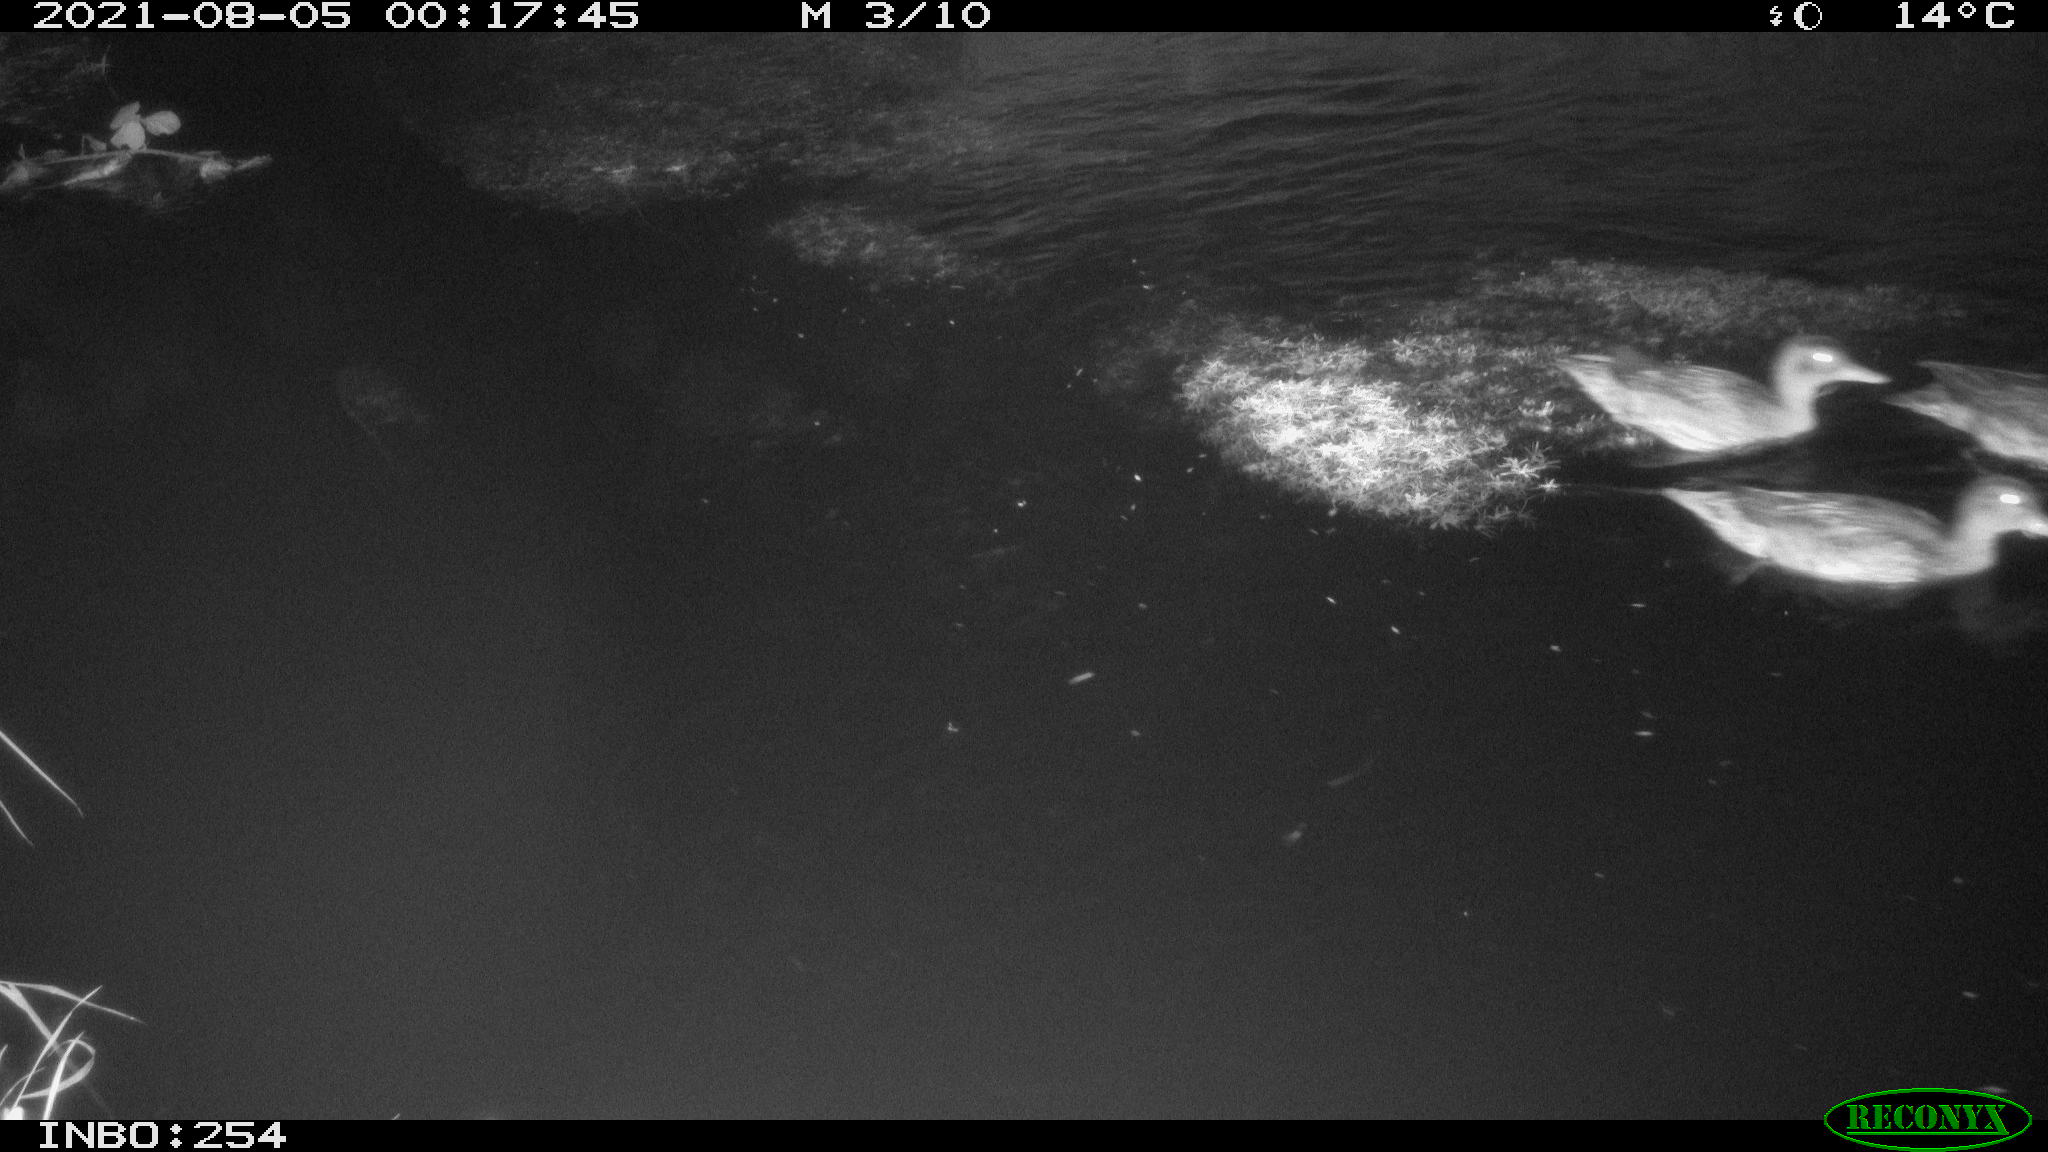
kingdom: Animalia
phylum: Chordata
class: Aves
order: Anseriformes
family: Anatidae
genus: Anas
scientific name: Anas platyrhynchos
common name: Mallard
